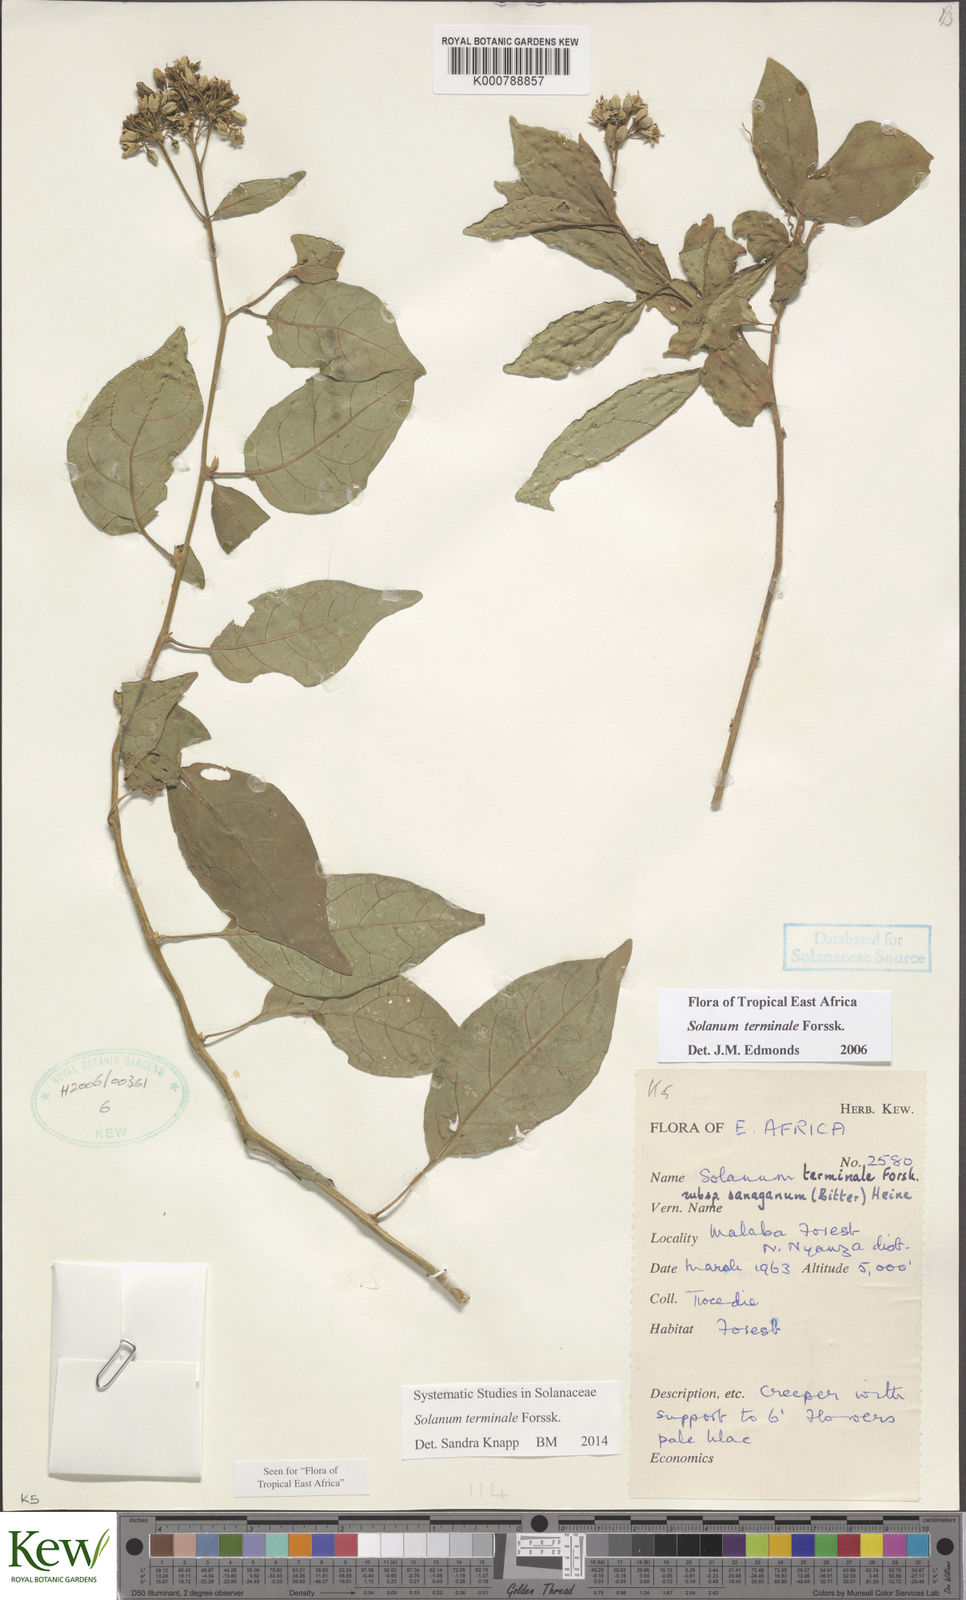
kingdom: Plantae
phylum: Tracheophyta
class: Magnoliopsida
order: Solanales
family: Solanaceae
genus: Solanum
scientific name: Solanum terminale
